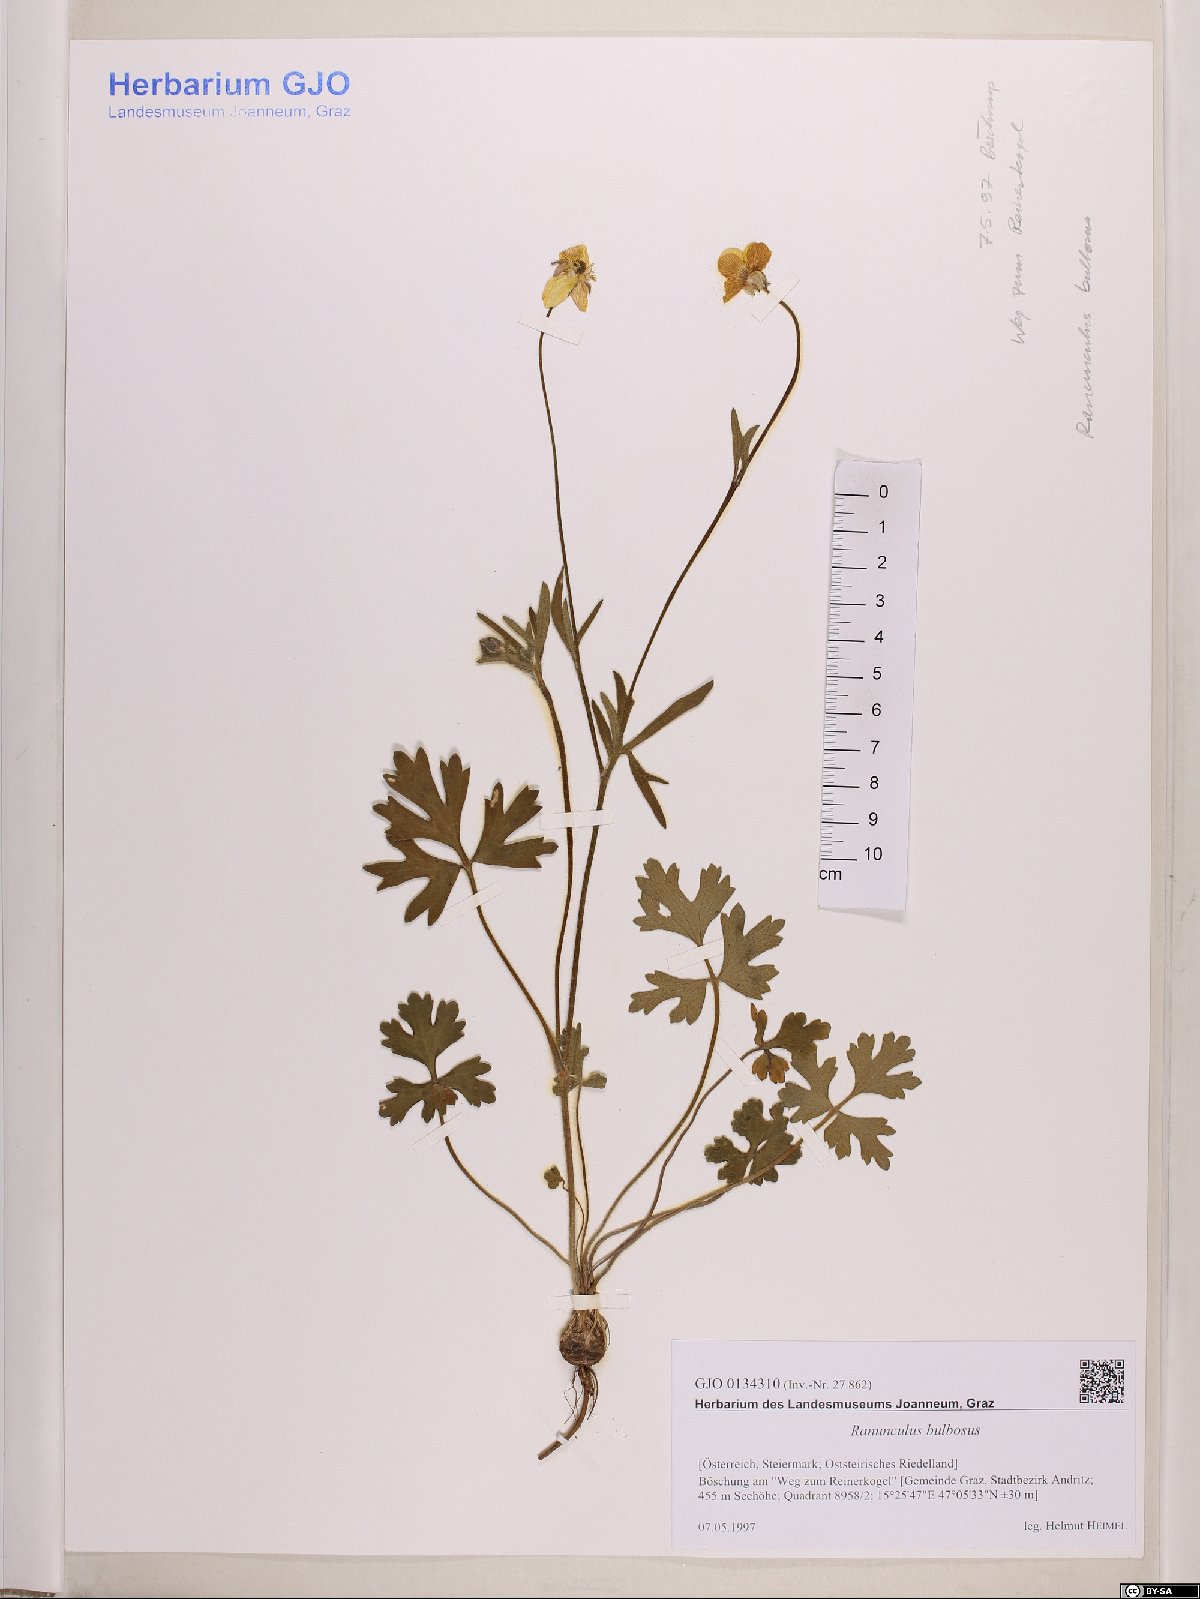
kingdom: Plantae
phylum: Tracheophyta
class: Magnoliopsida
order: Ranunculales
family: Ranunculaceae
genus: Ranunculus
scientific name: Ranunculus bulbosus
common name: Bulbous buttercup
